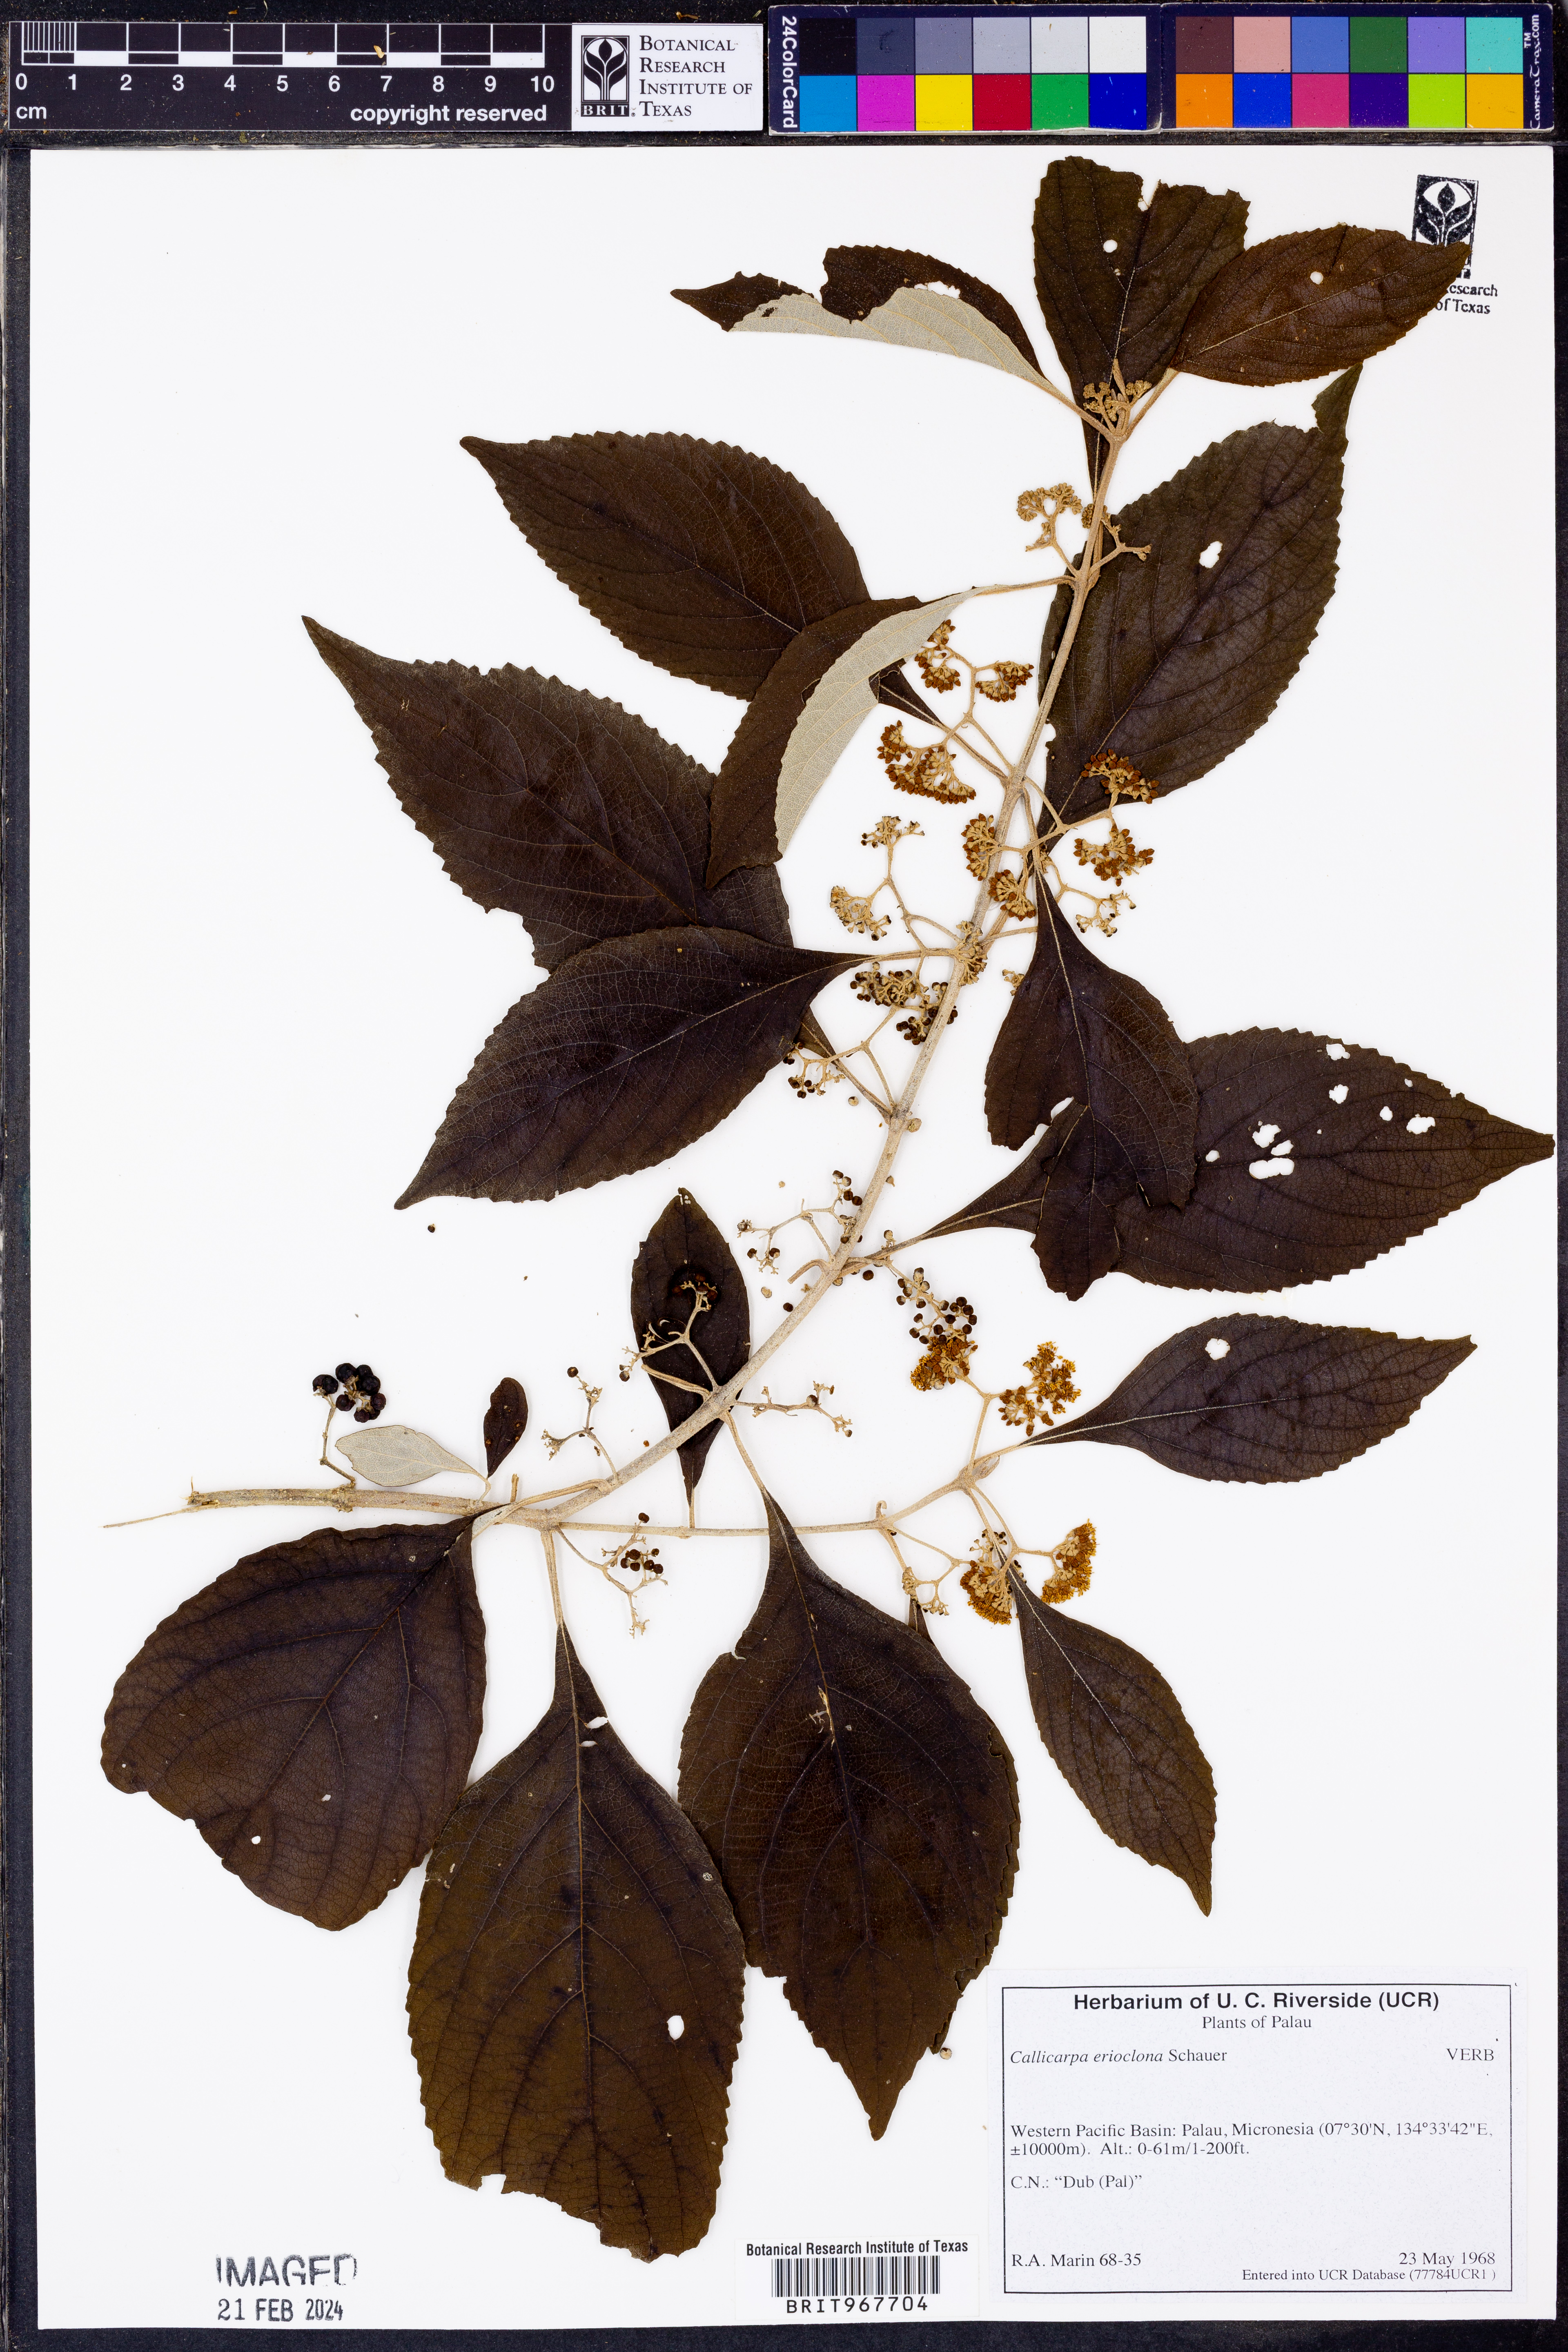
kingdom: Plantae
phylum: Tracheophyta
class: Magnoliopsida
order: Lamiales
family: Lamiaceae
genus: Callicarpa
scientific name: Callicarpa erioclona
